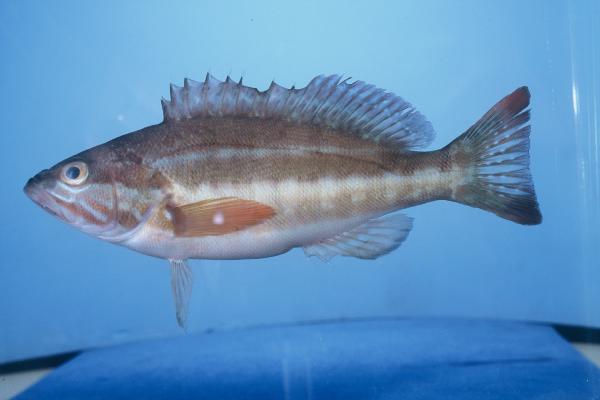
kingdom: Animalia
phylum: Chordata
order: Perciformes
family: Serranidae
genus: Serranus
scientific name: Serranus cabrilla
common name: Comber
